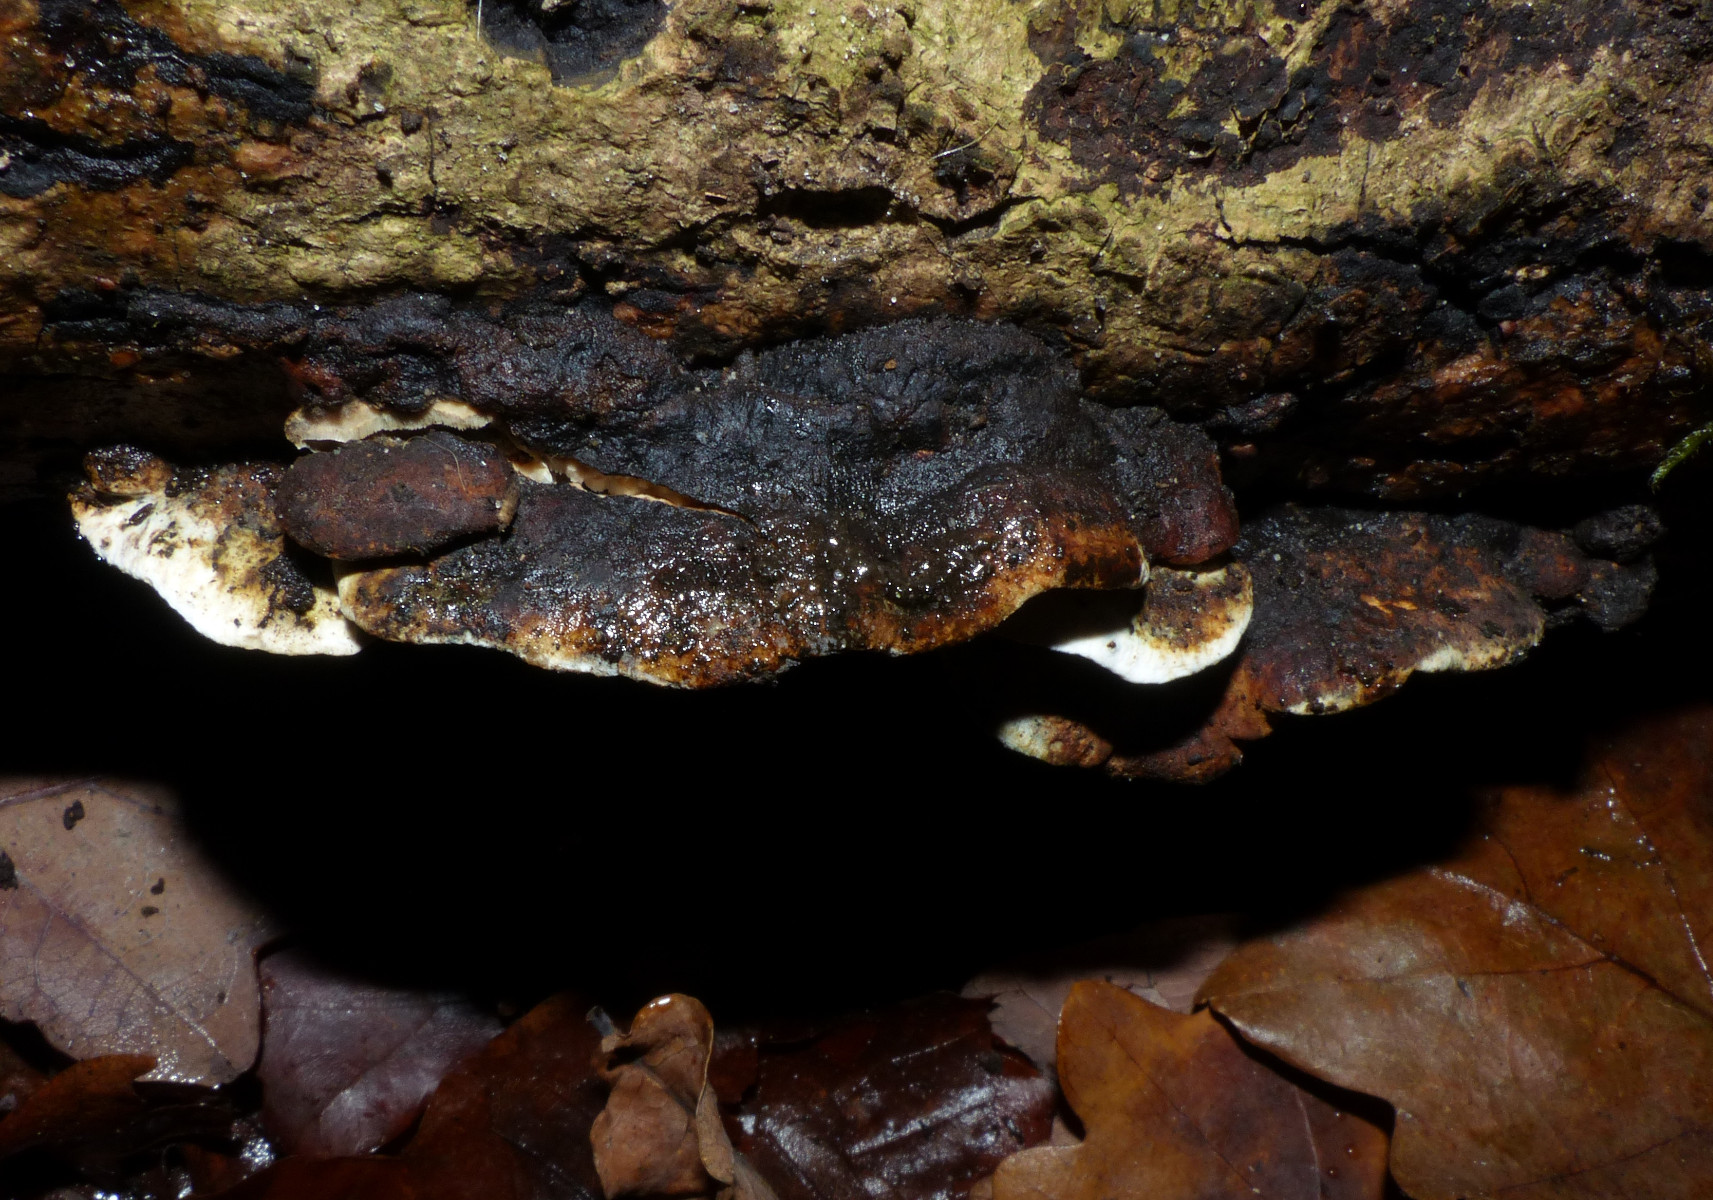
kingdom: Fungi
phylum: Basidiomycota
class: Agaricomycetes
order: Polyporales
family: Incrustoporiaceae
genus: Skeletocutis
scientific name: Skeletocutis nemoralis
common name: stor krystalporesvamp
